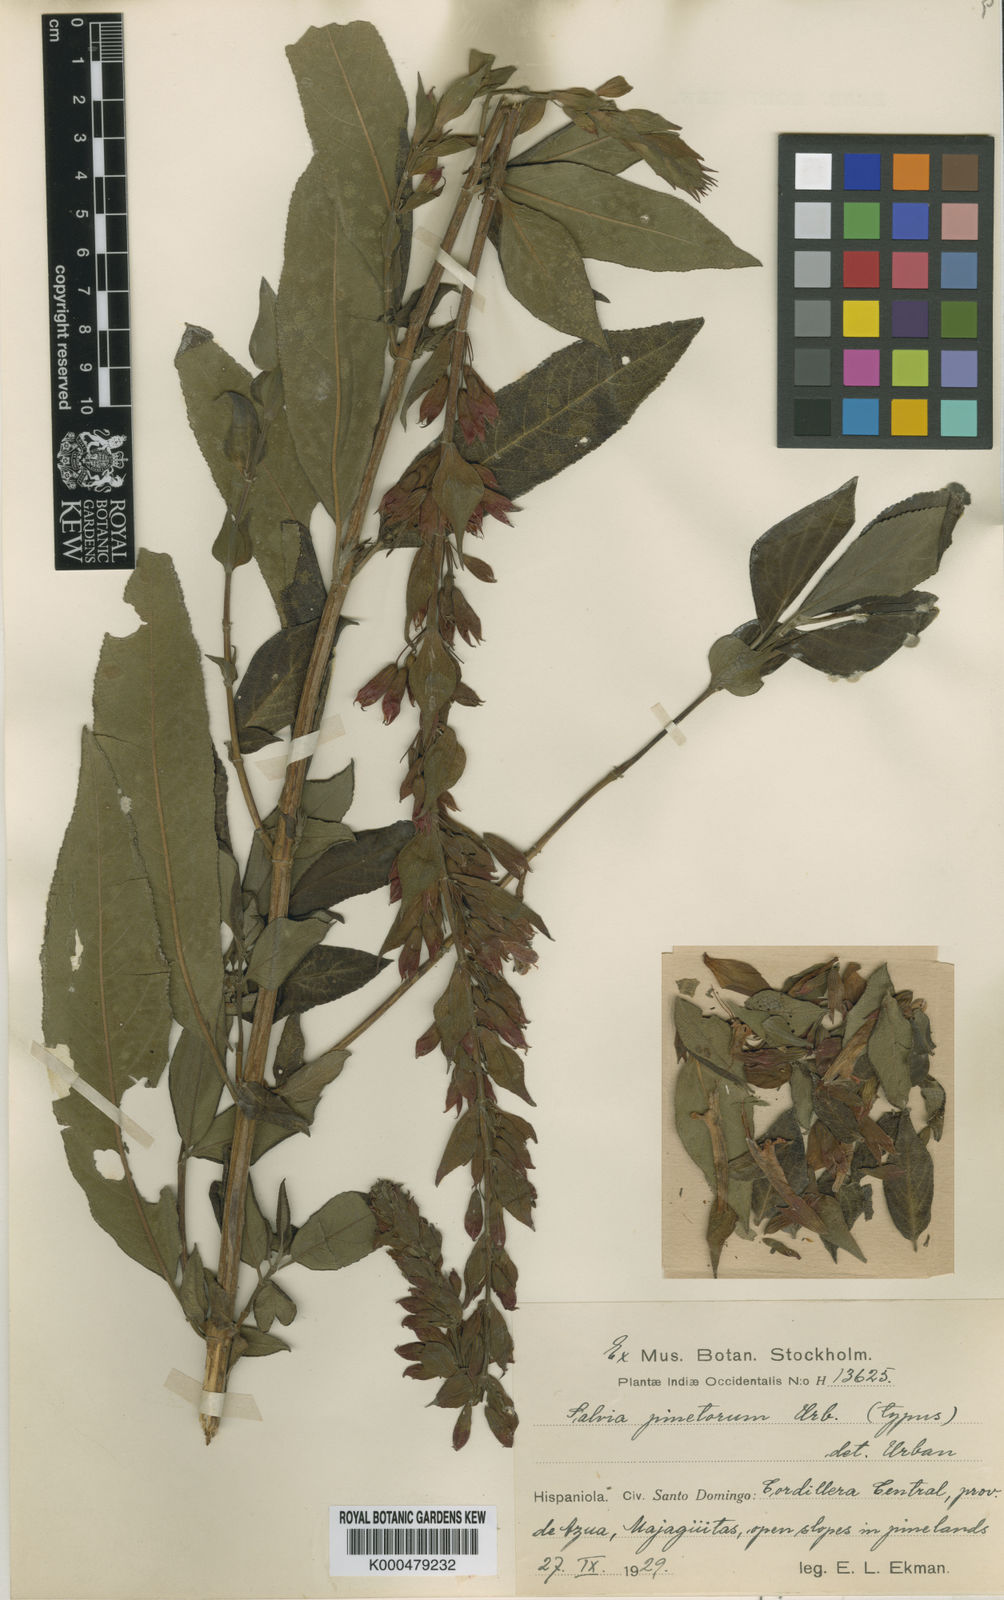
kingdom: Plantae
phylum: Tracheophyta
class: Magnoliopsida
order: Lamiales
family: Lamiaceae
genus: Salvia
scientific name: Salvia tuerckheimii
